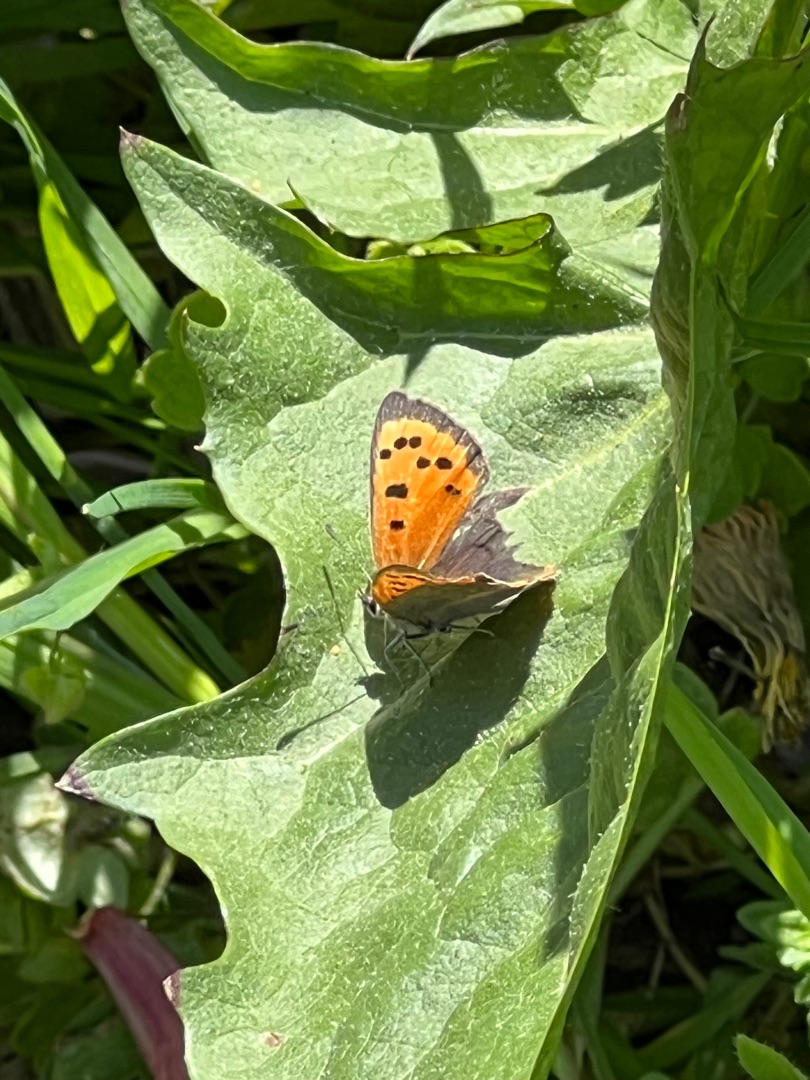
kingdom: Animalia
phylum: Arthropoda
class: Insecta
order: Lepidoptera
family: Lycaenidae
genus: Lycaena
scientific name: Lycaena phlaeas
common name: Lille ildfugl
